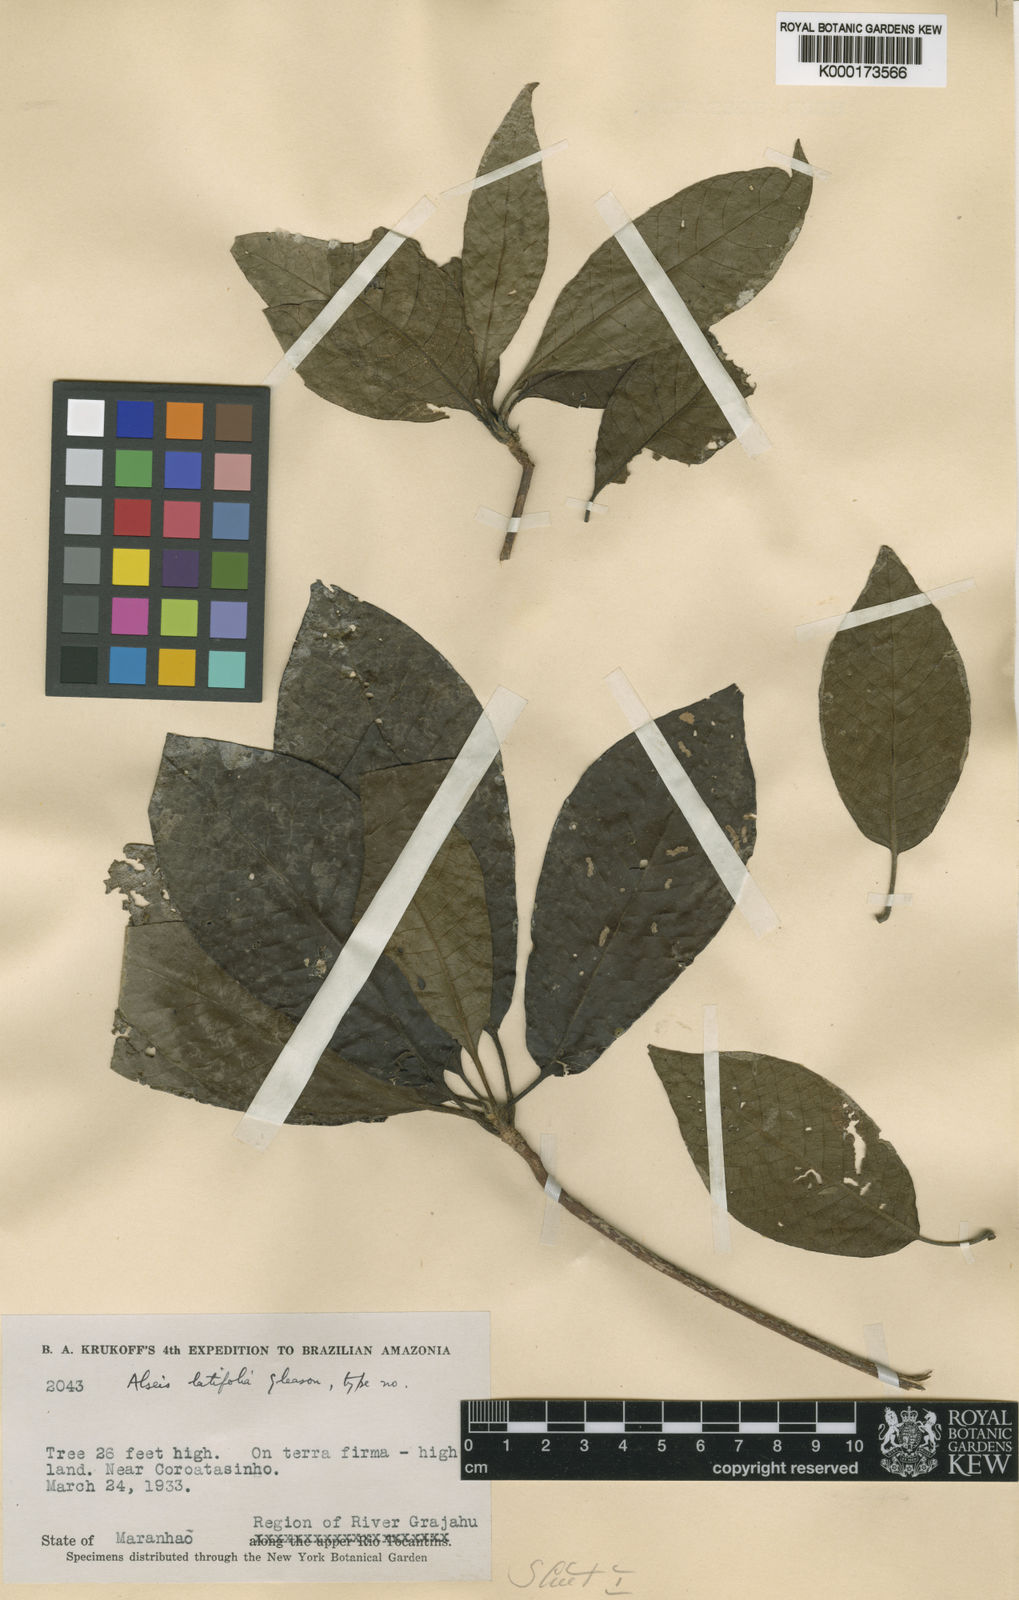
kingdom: Plantae
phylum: Tracheophyta
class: Magnoliopsida
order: Gentianales
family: Rubiaceae
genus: Alseis
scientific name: Alseis latifolia
